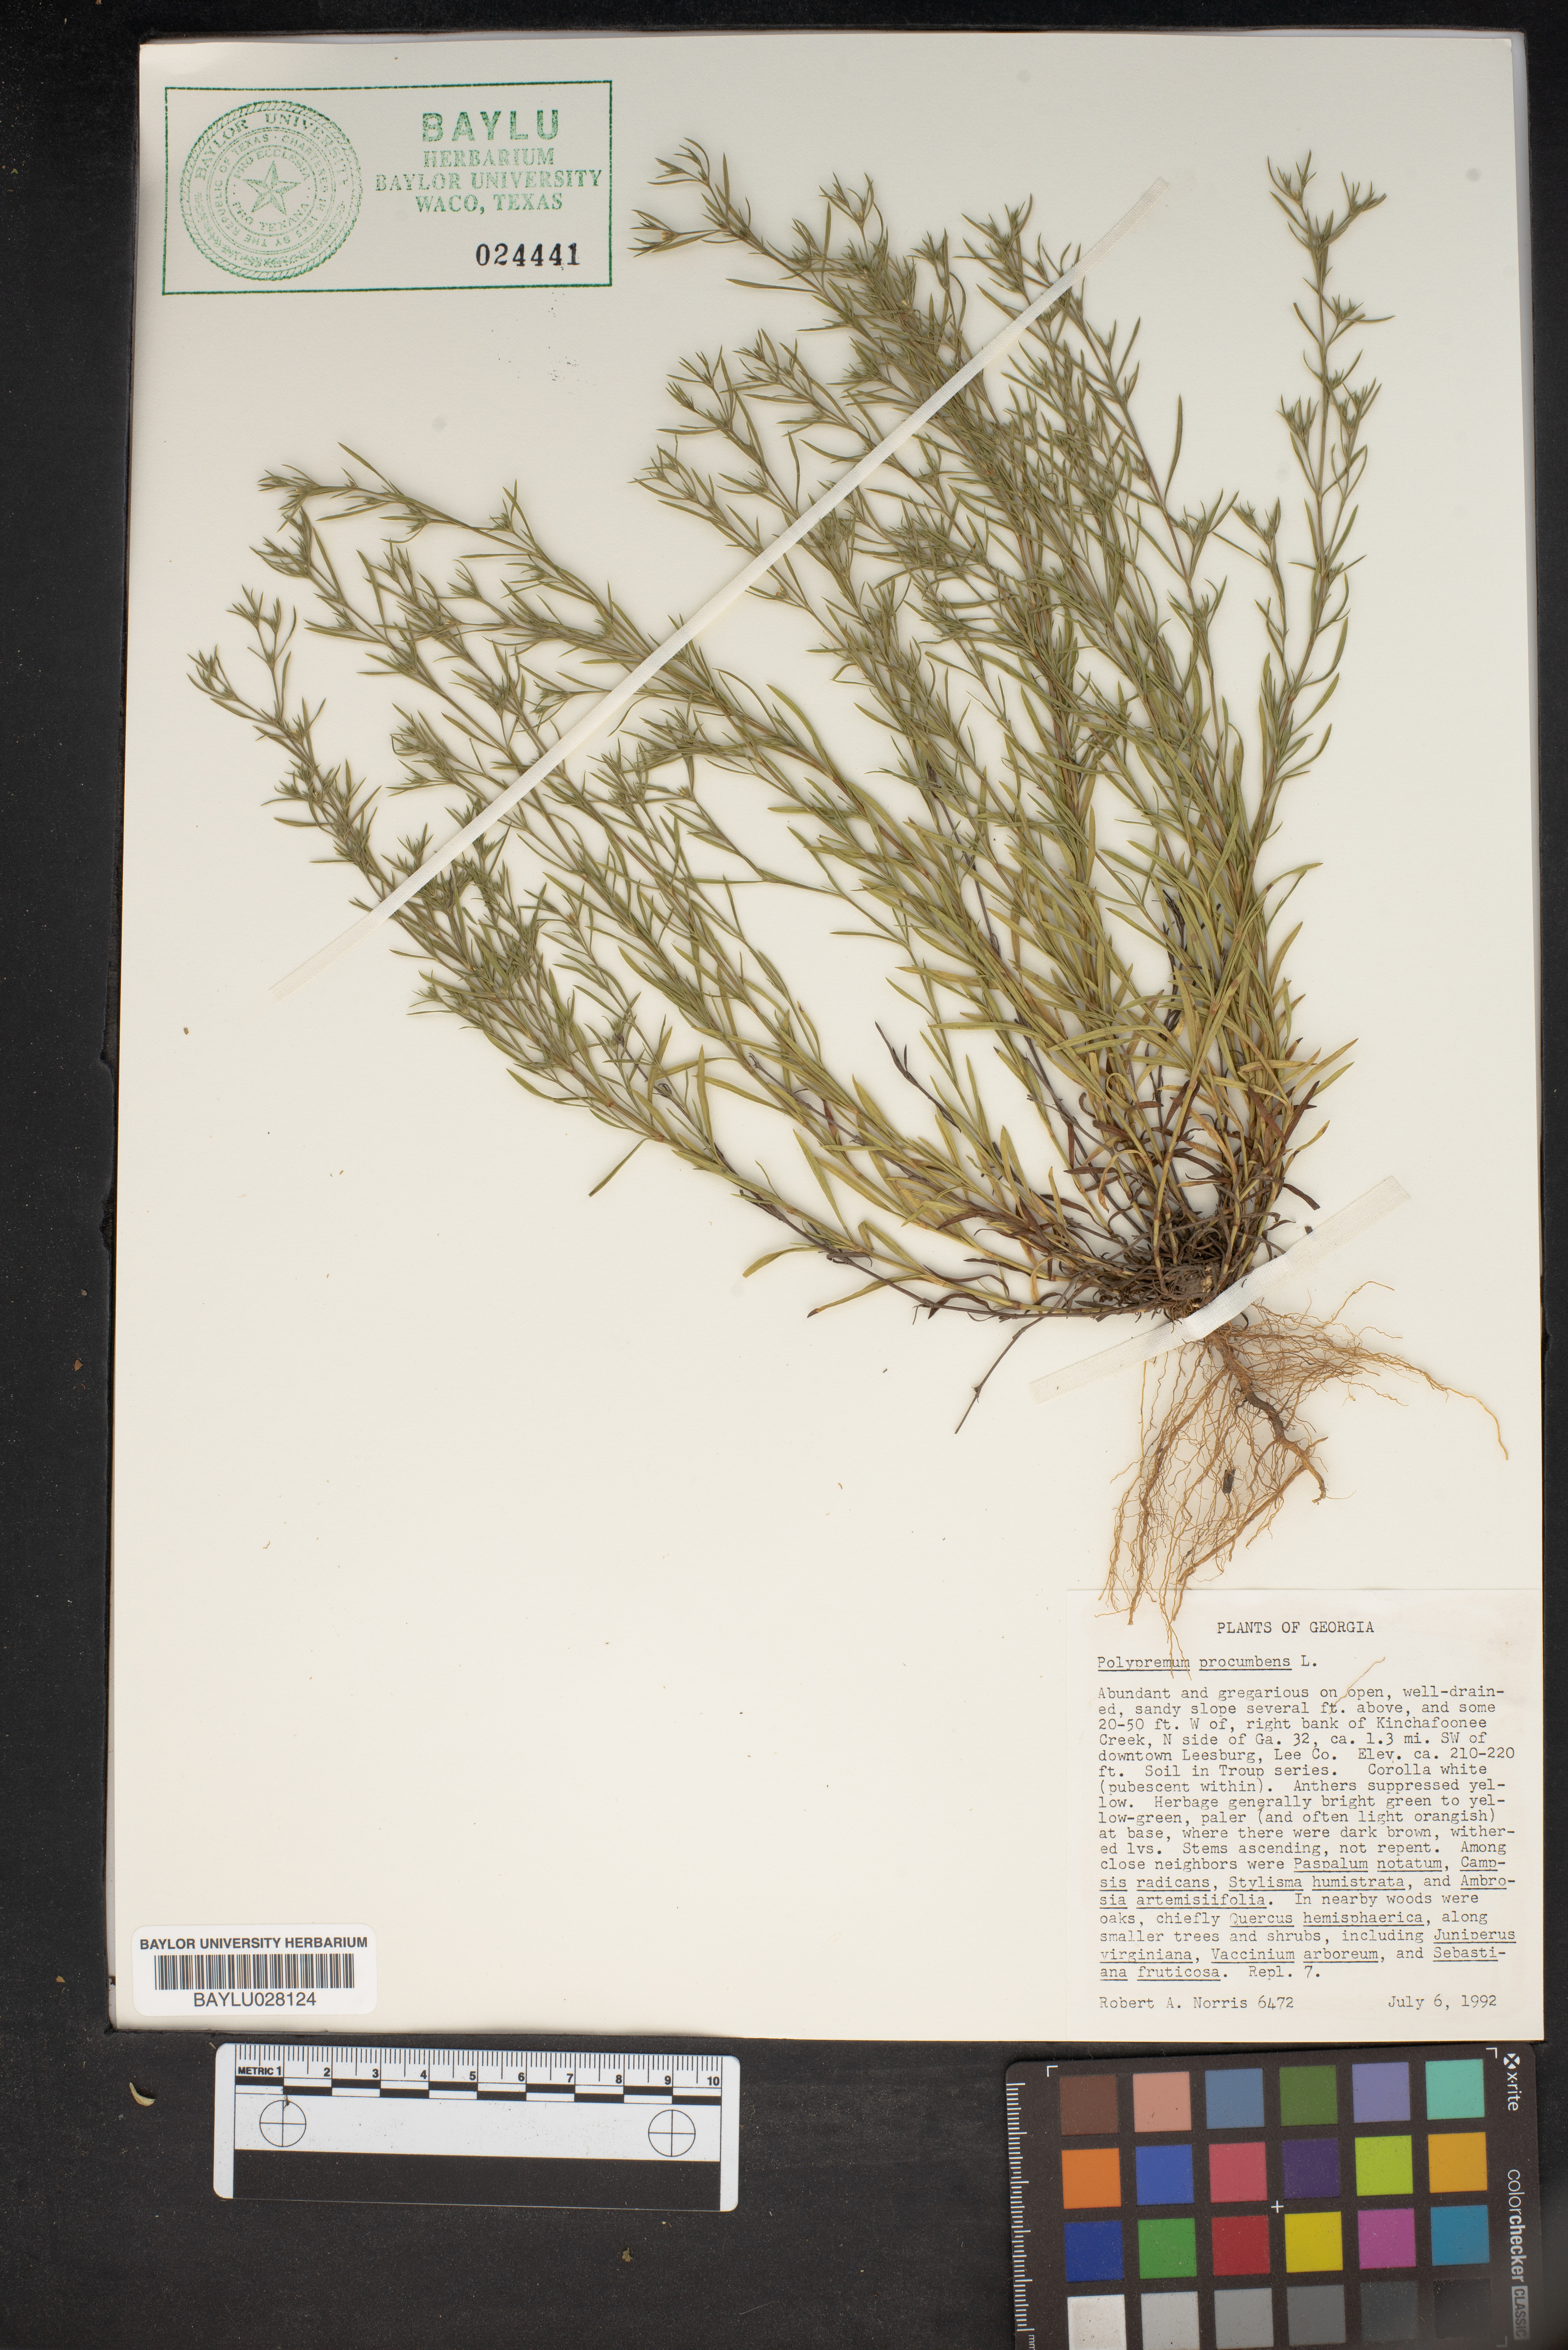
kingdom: Plantae
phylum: Tracheophyta
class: Magnoliopsida
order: Lamiales
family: Tetrachondraceae
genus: Polypremum
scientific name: Polypremum procumbens
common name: Juniper-leaf
